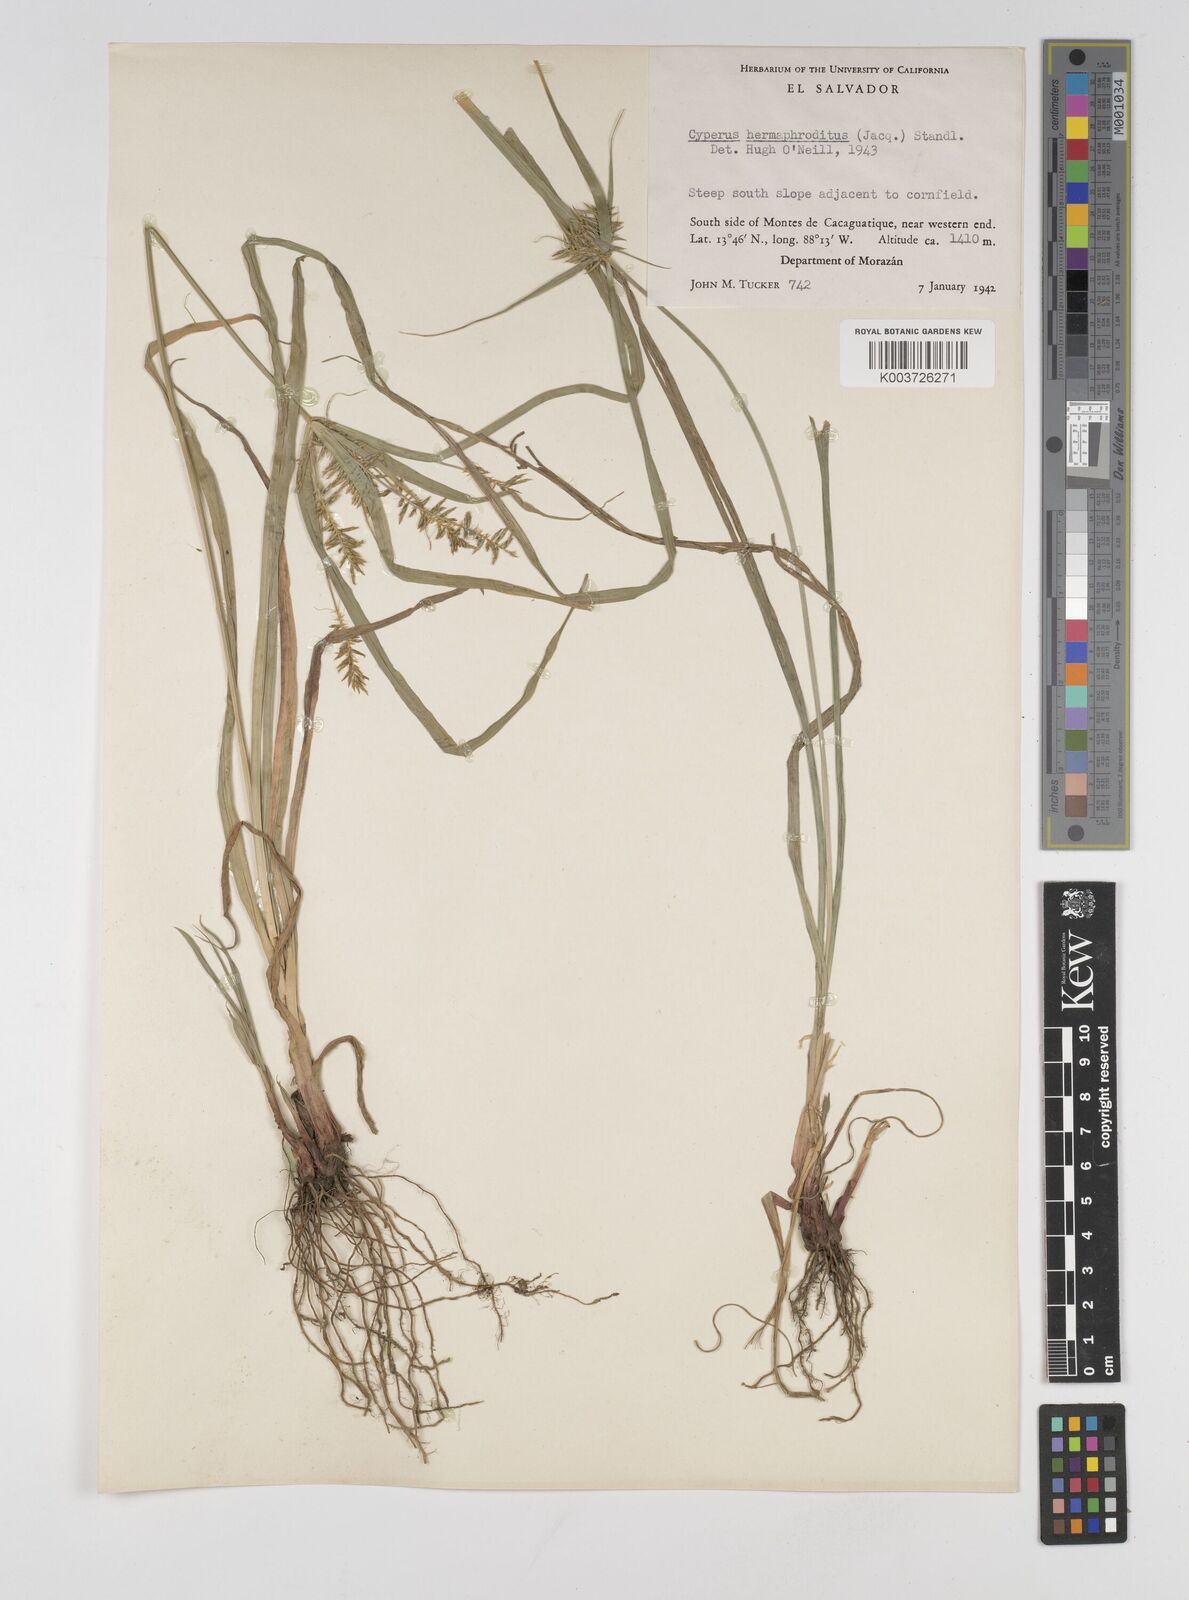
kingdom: Plantae
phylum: Tracheophyta
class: Liliopsida
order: Poales
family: Cyperaceae
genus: Cyperus
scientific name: Cyperus hermaphroditus
